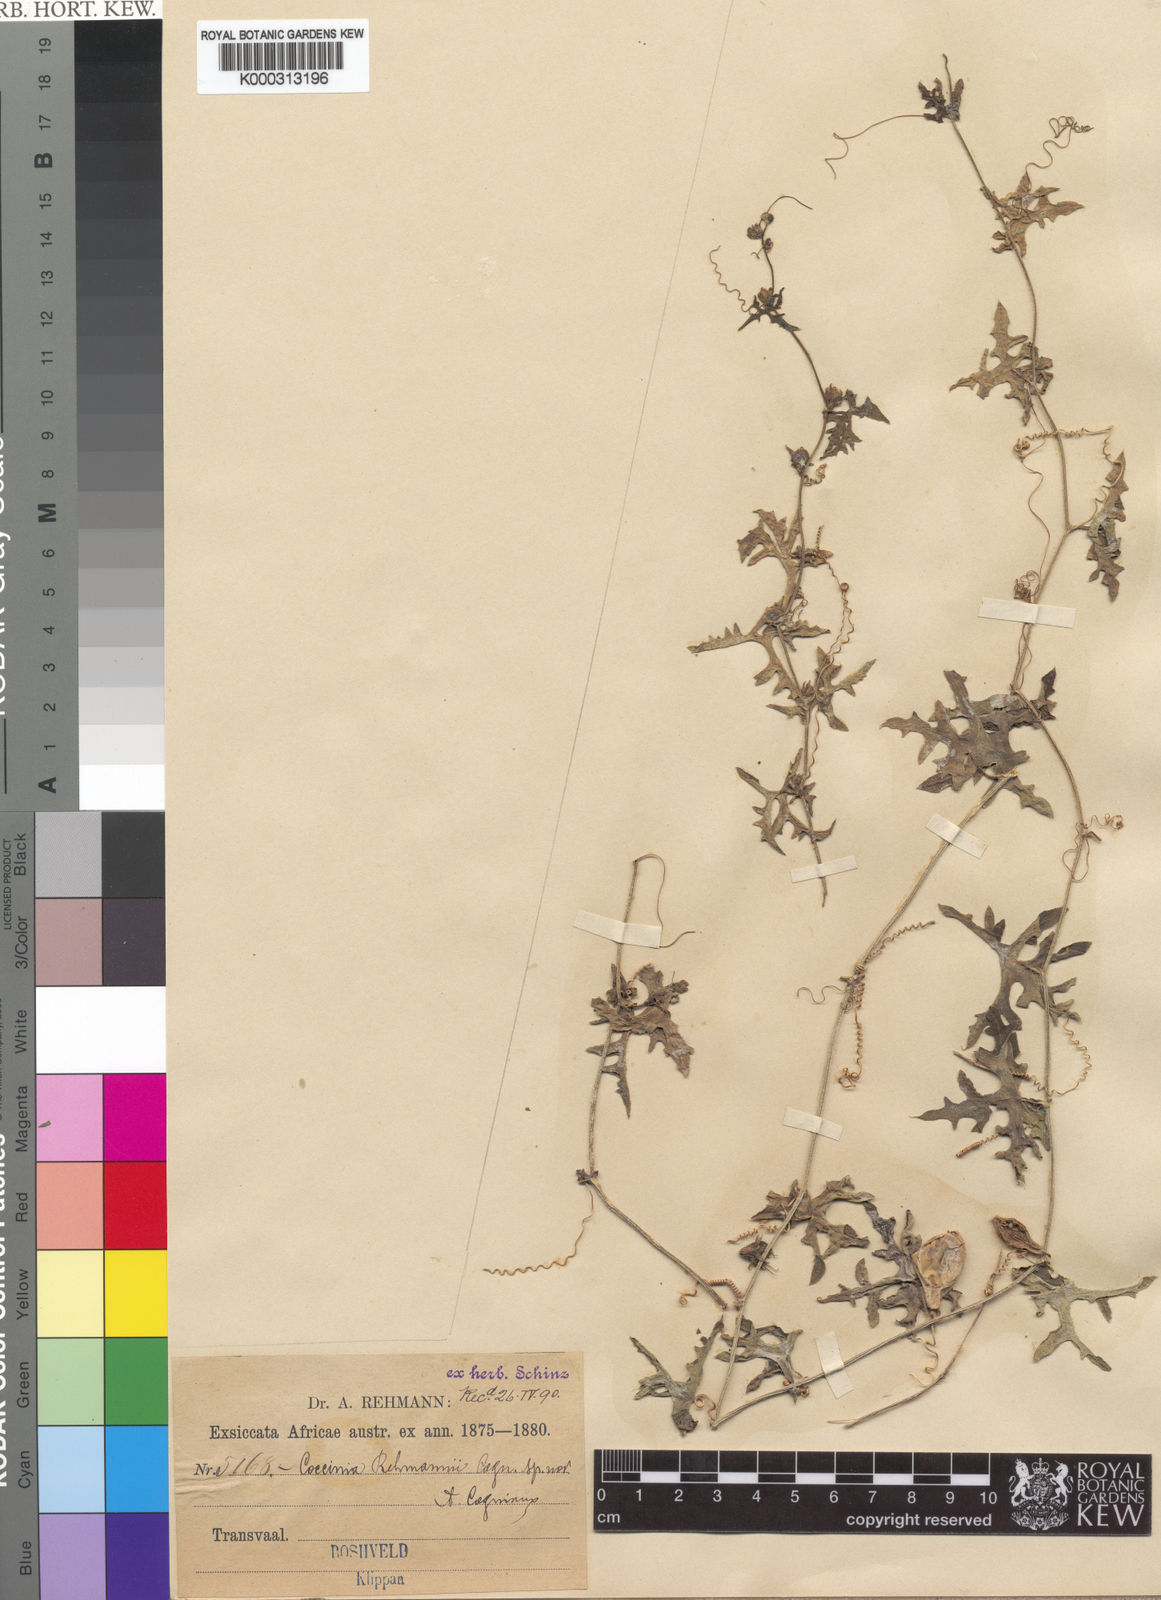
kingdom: Plantae
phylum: Tracheophyta
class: Magnoliopsida
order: Cucurbitales
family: Cucurbitaceae
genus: Coccinia
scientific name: Coccinia rehmannii
